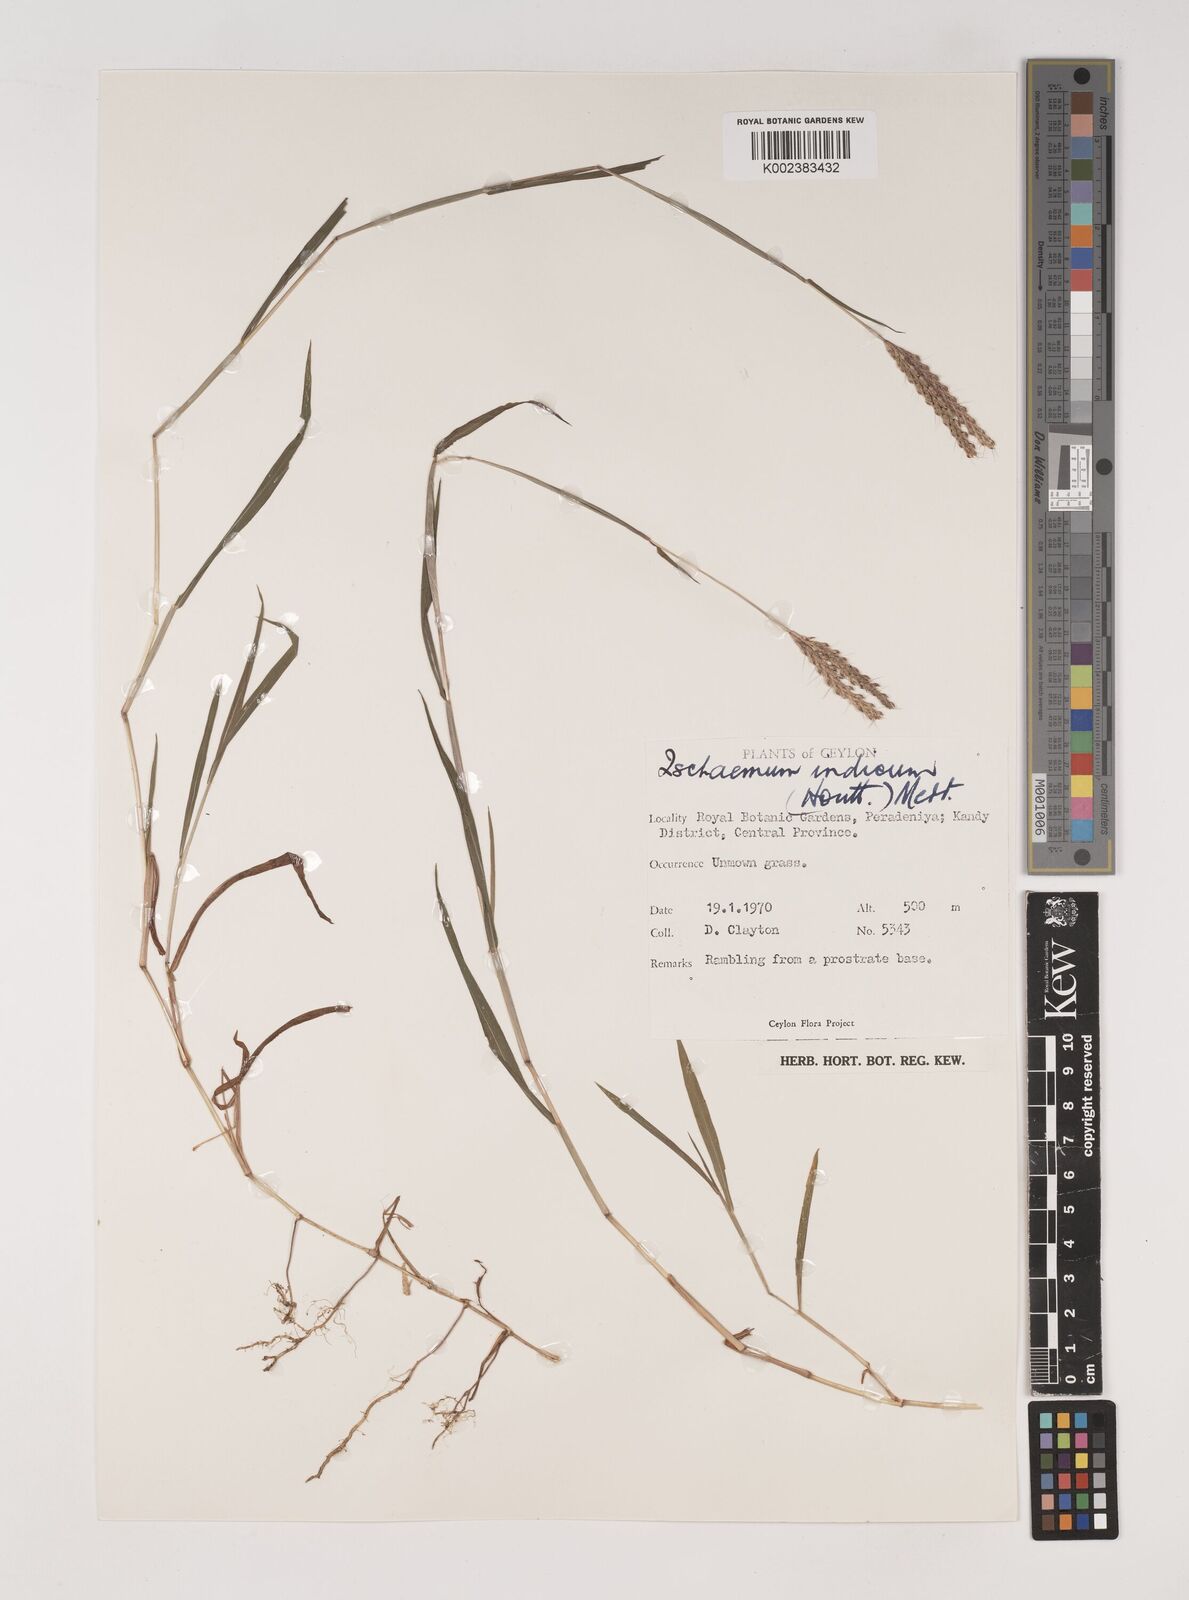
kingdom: Plantae
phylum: Tracheophyta
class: Liliopsida
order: Poales
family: Poaceae
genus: Polytrias
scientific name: Polytrias indica
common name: Indian murainagrass
